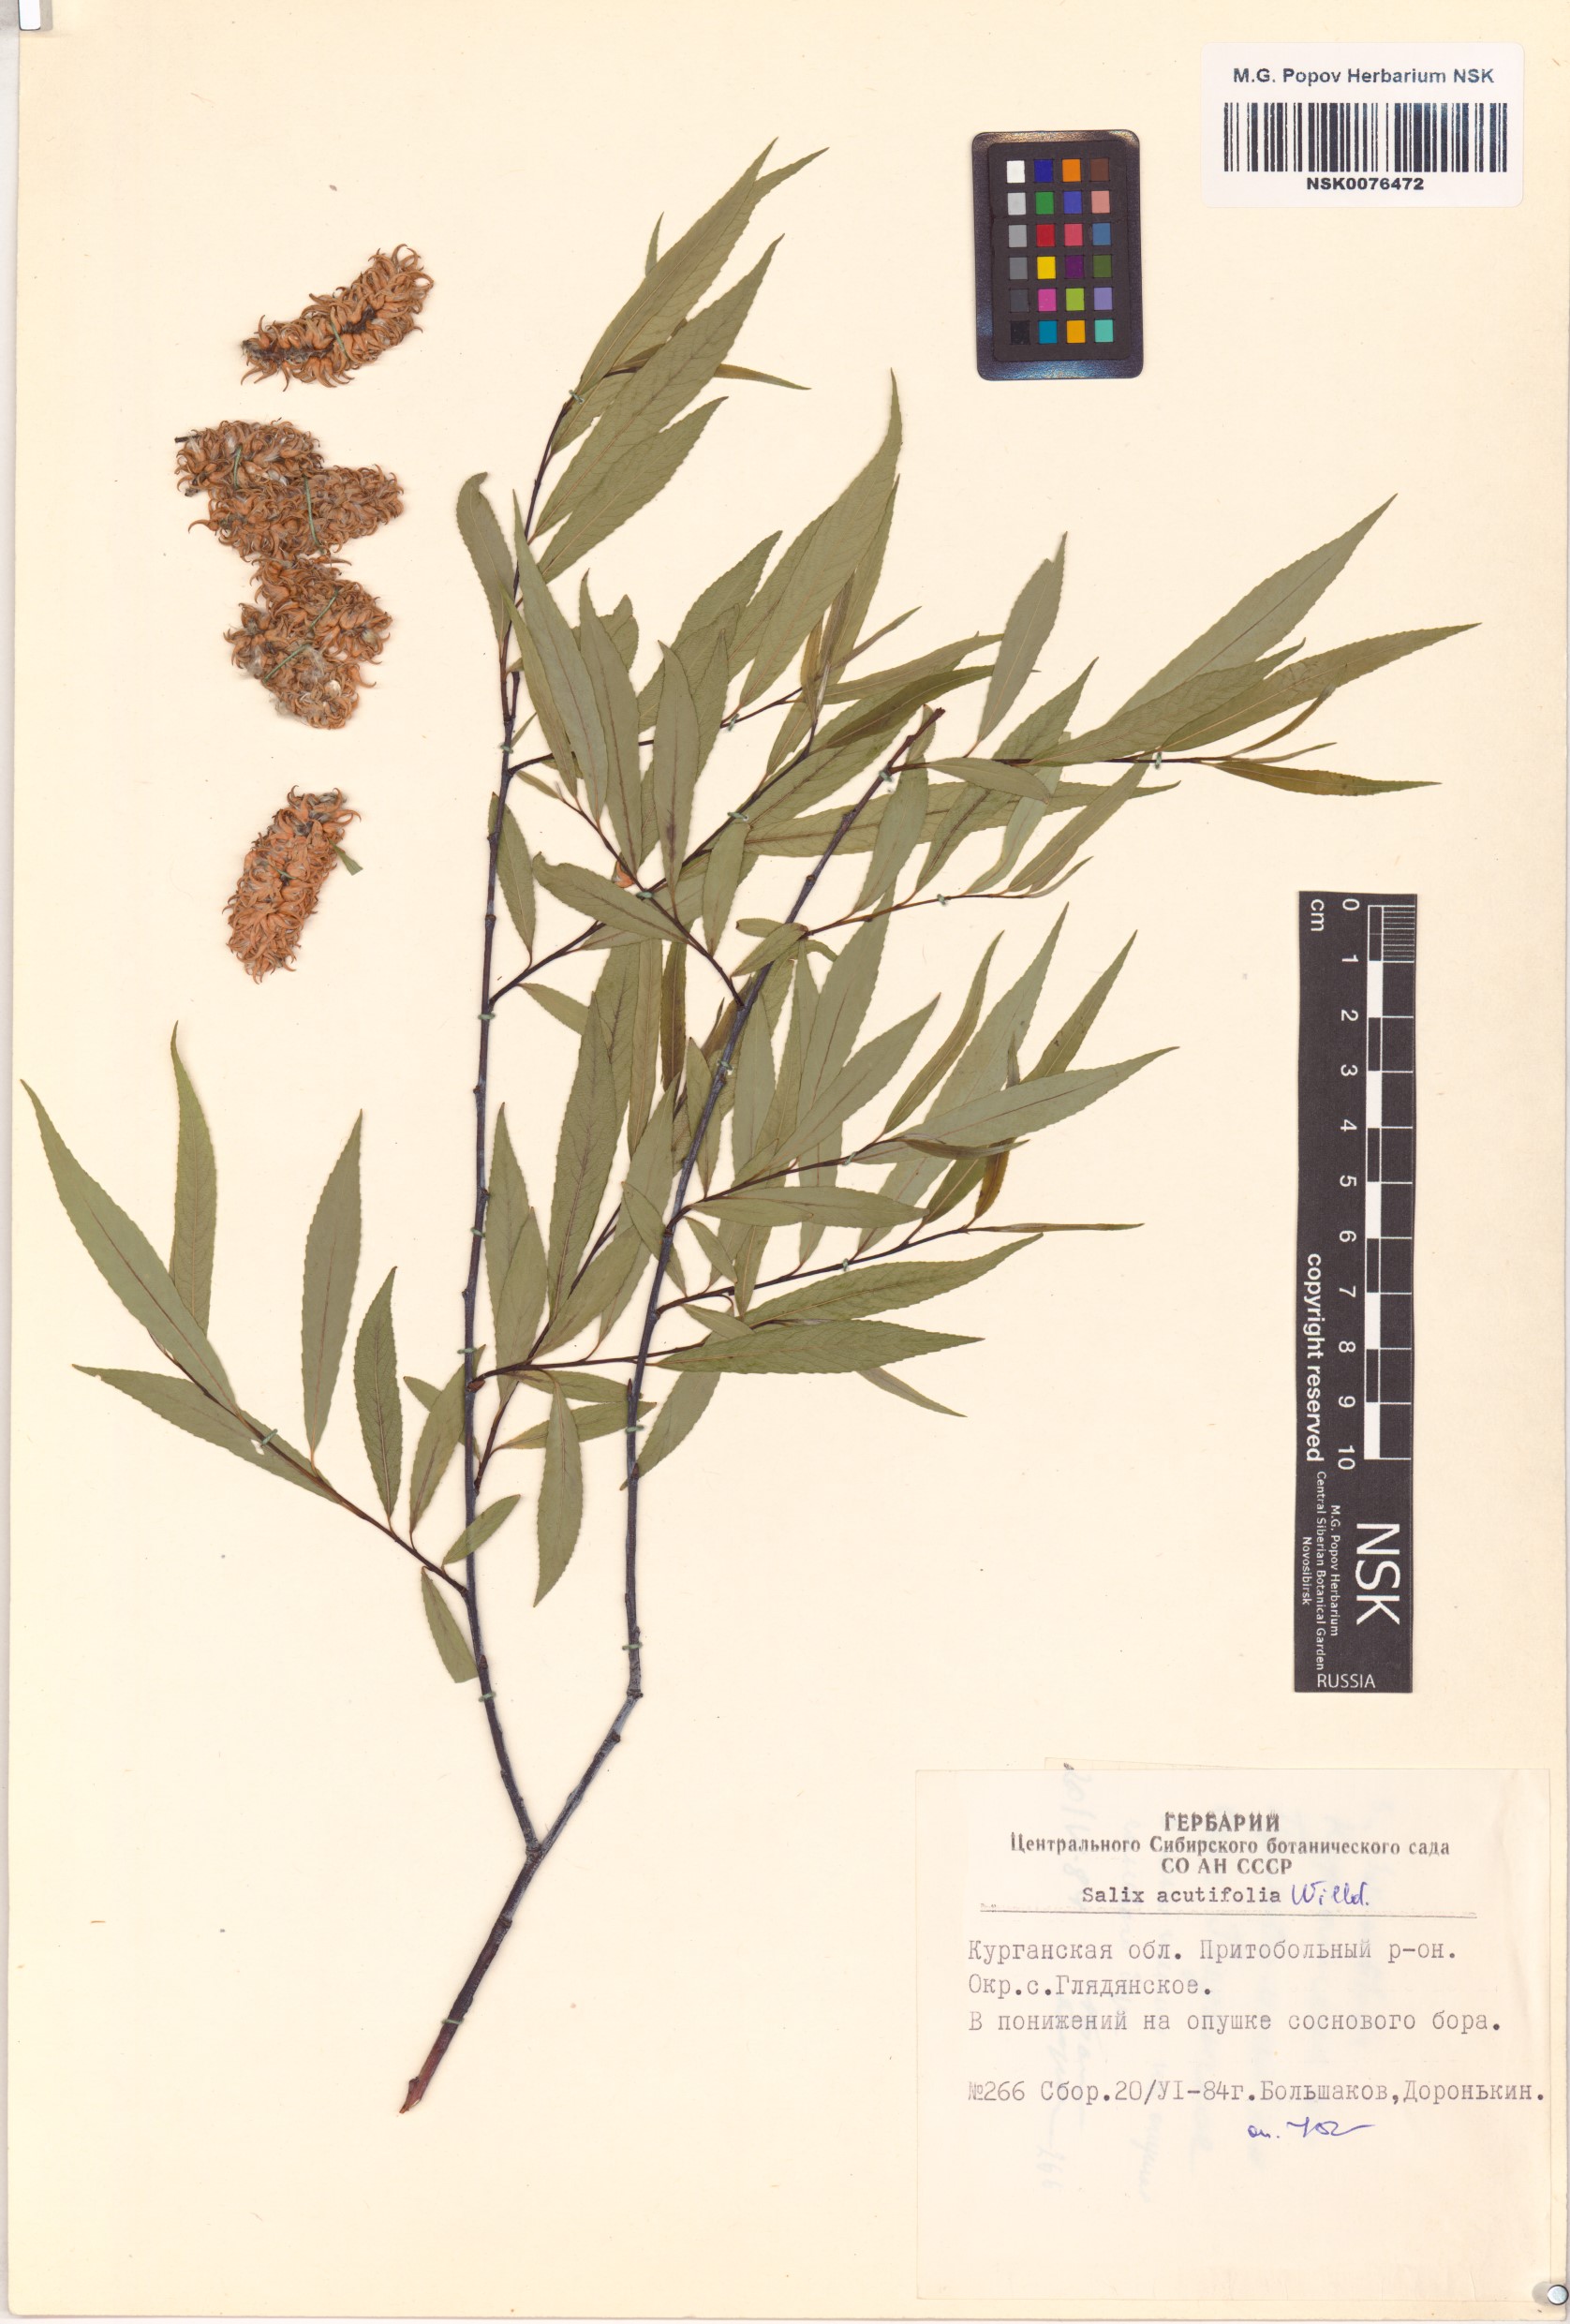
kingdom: Plantae
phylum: Tracheophyta
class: Magnoliopsida
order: Malpighiales
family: Salicaceae
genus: Salix
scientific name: Salix acutifolia
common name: Siberian violet-willow
